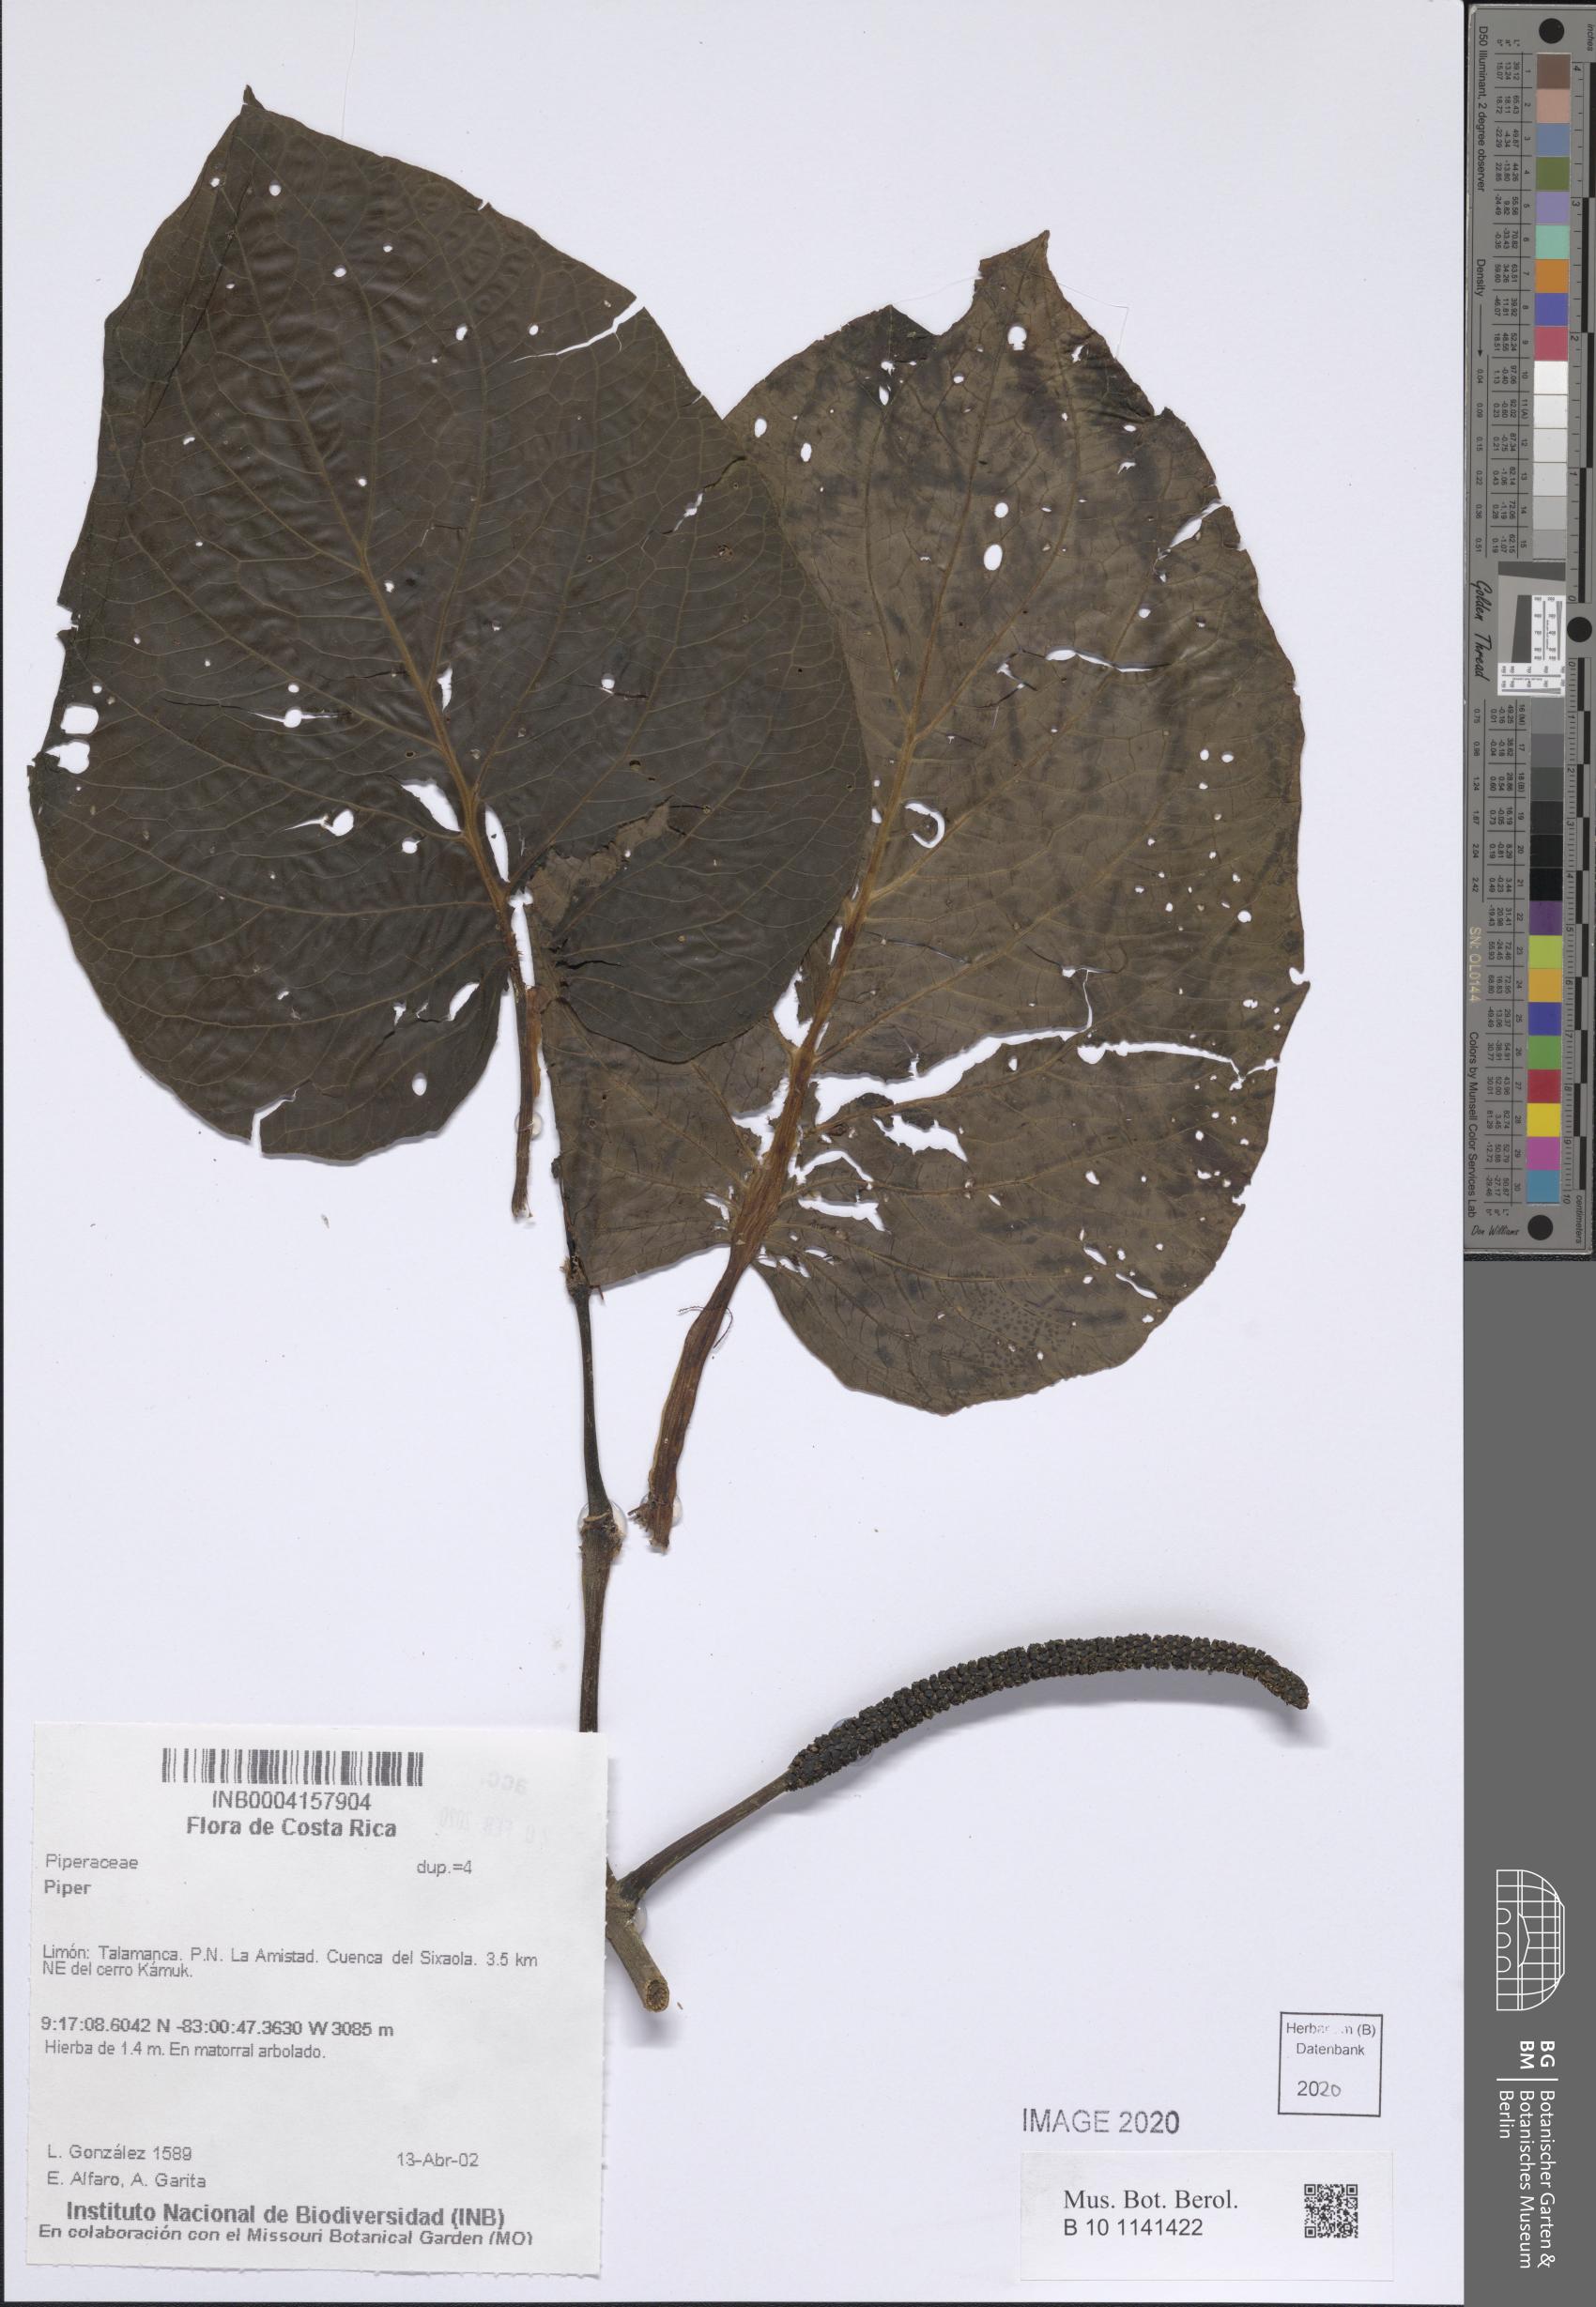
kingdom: Plantae
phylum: Tracheophyta
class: Magnoliopsida
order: Piperales
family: Piperaceae
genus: Piper
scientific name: Piper
